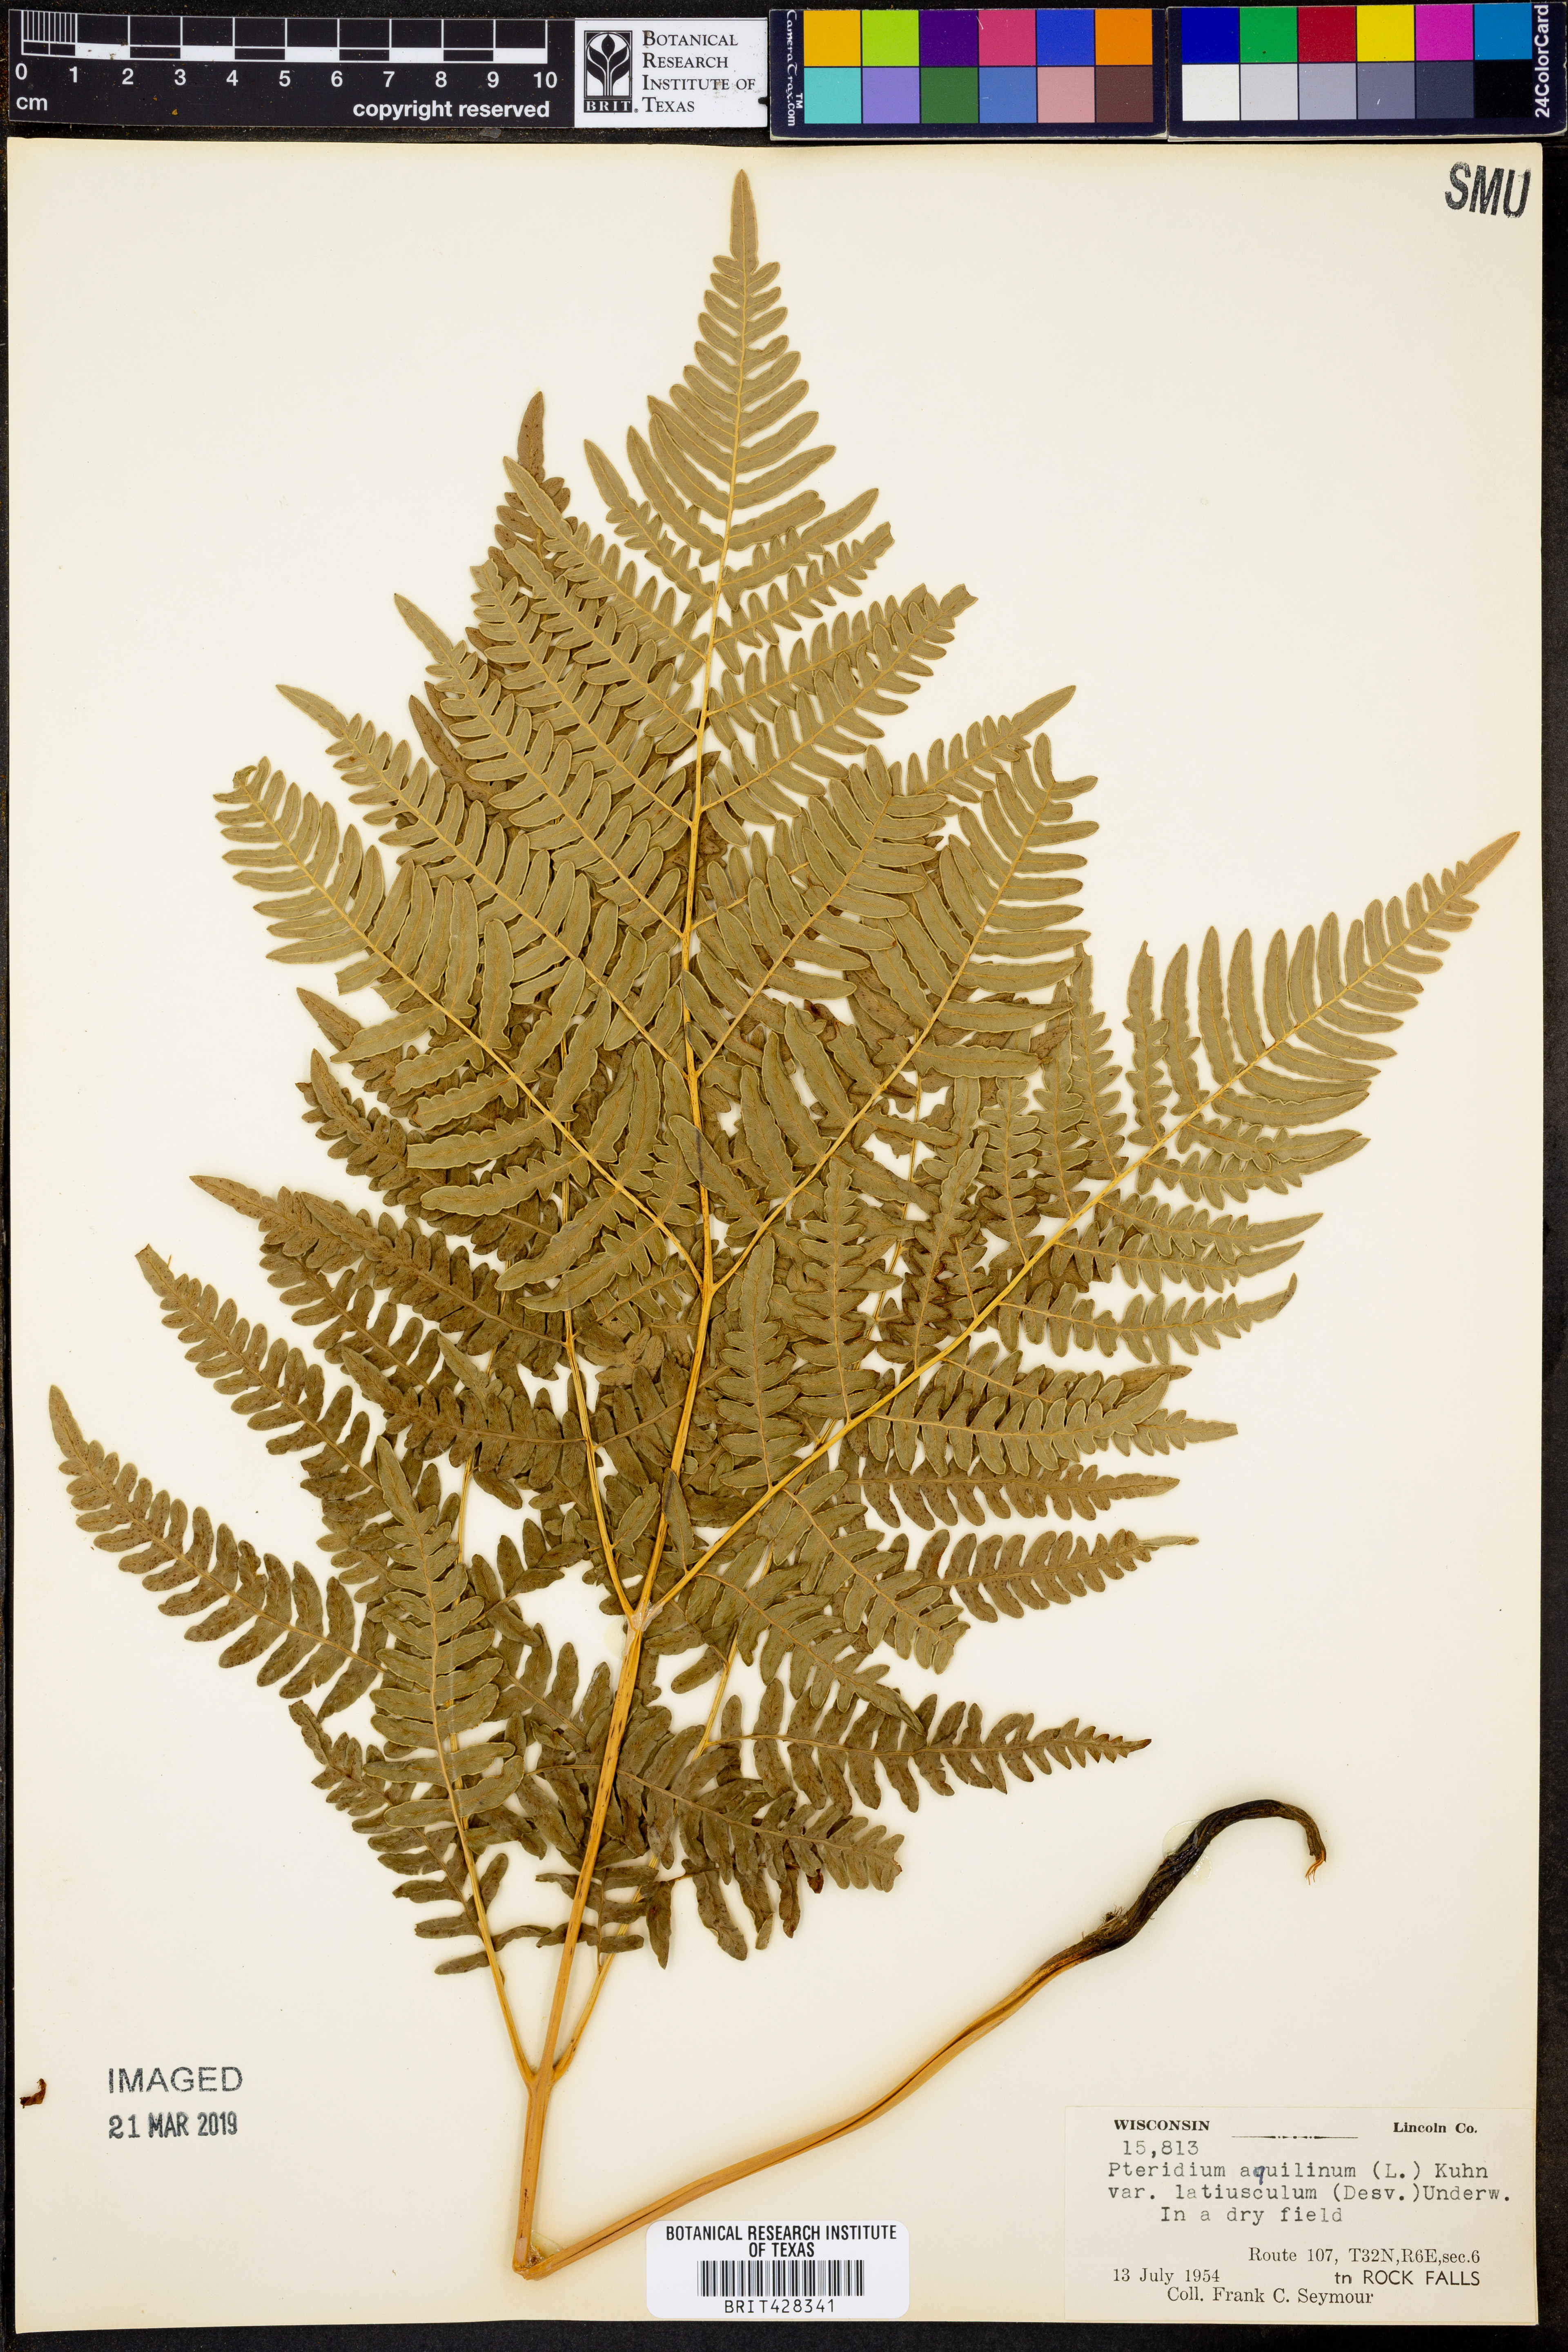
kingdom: Plantae
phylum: Tracheophyta
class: Polypodiopsida
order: Polypodiales
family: Dennstaedtiaceae
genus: Pteridium
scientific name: Pteridium aquilinum
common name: Bracken
